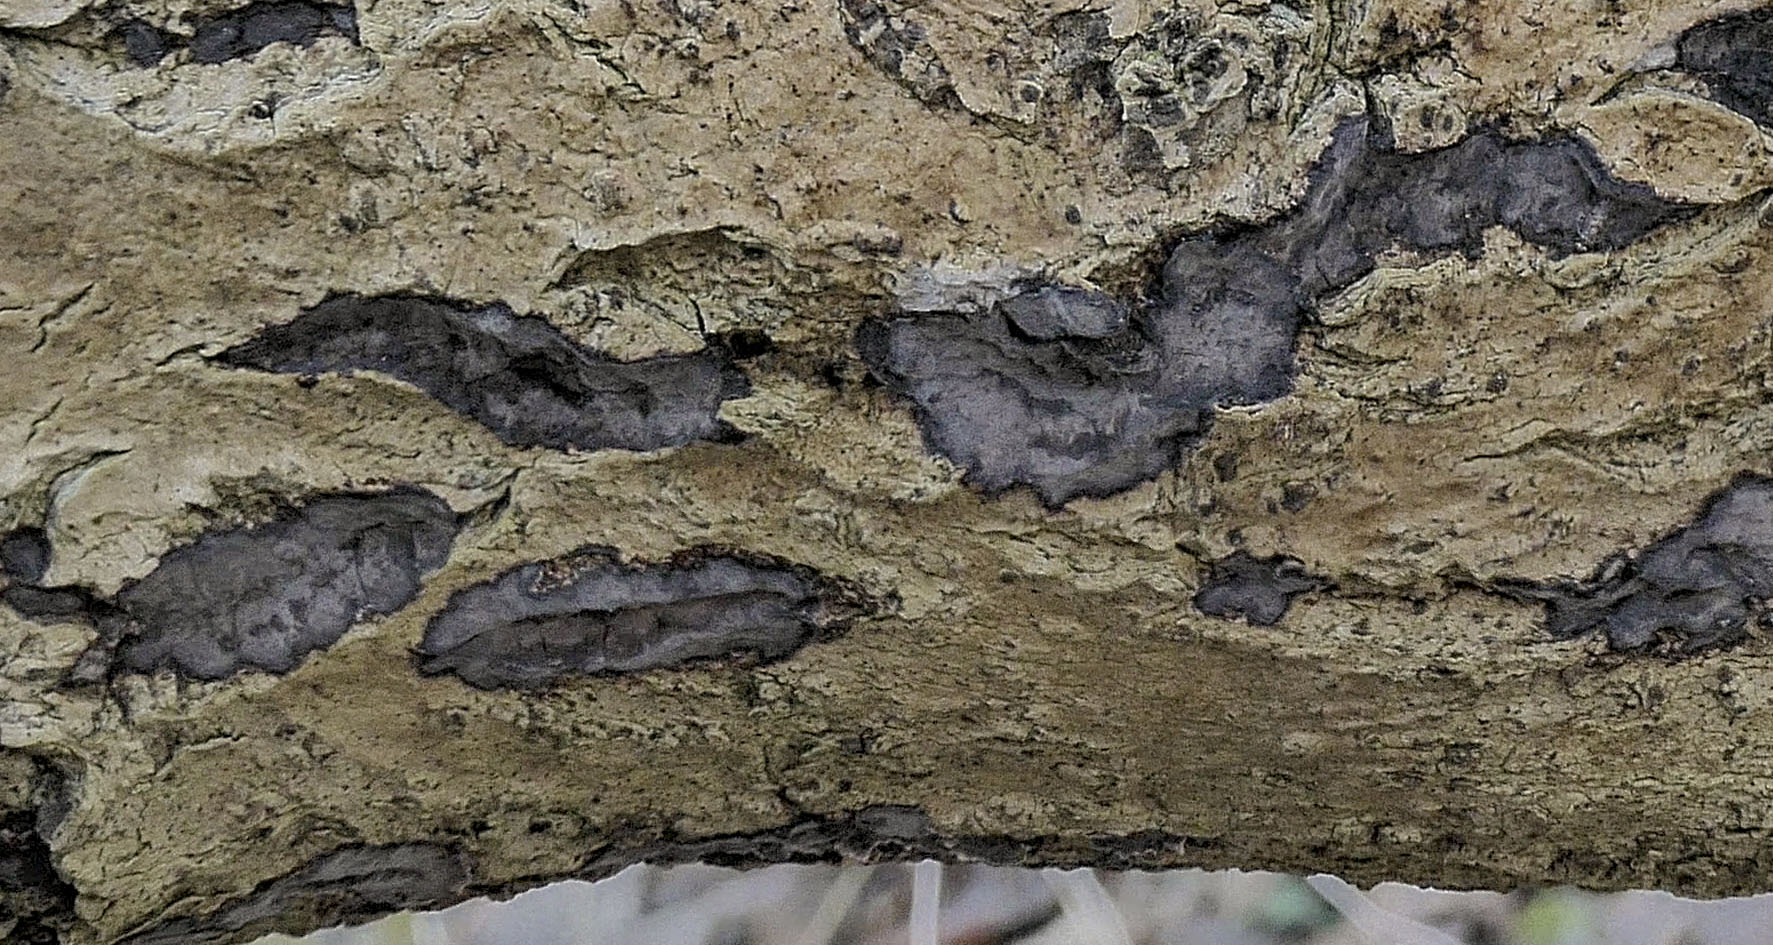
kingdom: Fungi
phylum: Basidiomycota
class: Agaricomycetes
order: Russulales
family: Peniophoraceae
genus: Peniophora
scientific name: Peniophora limitata
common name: mørkrandet voksskind
